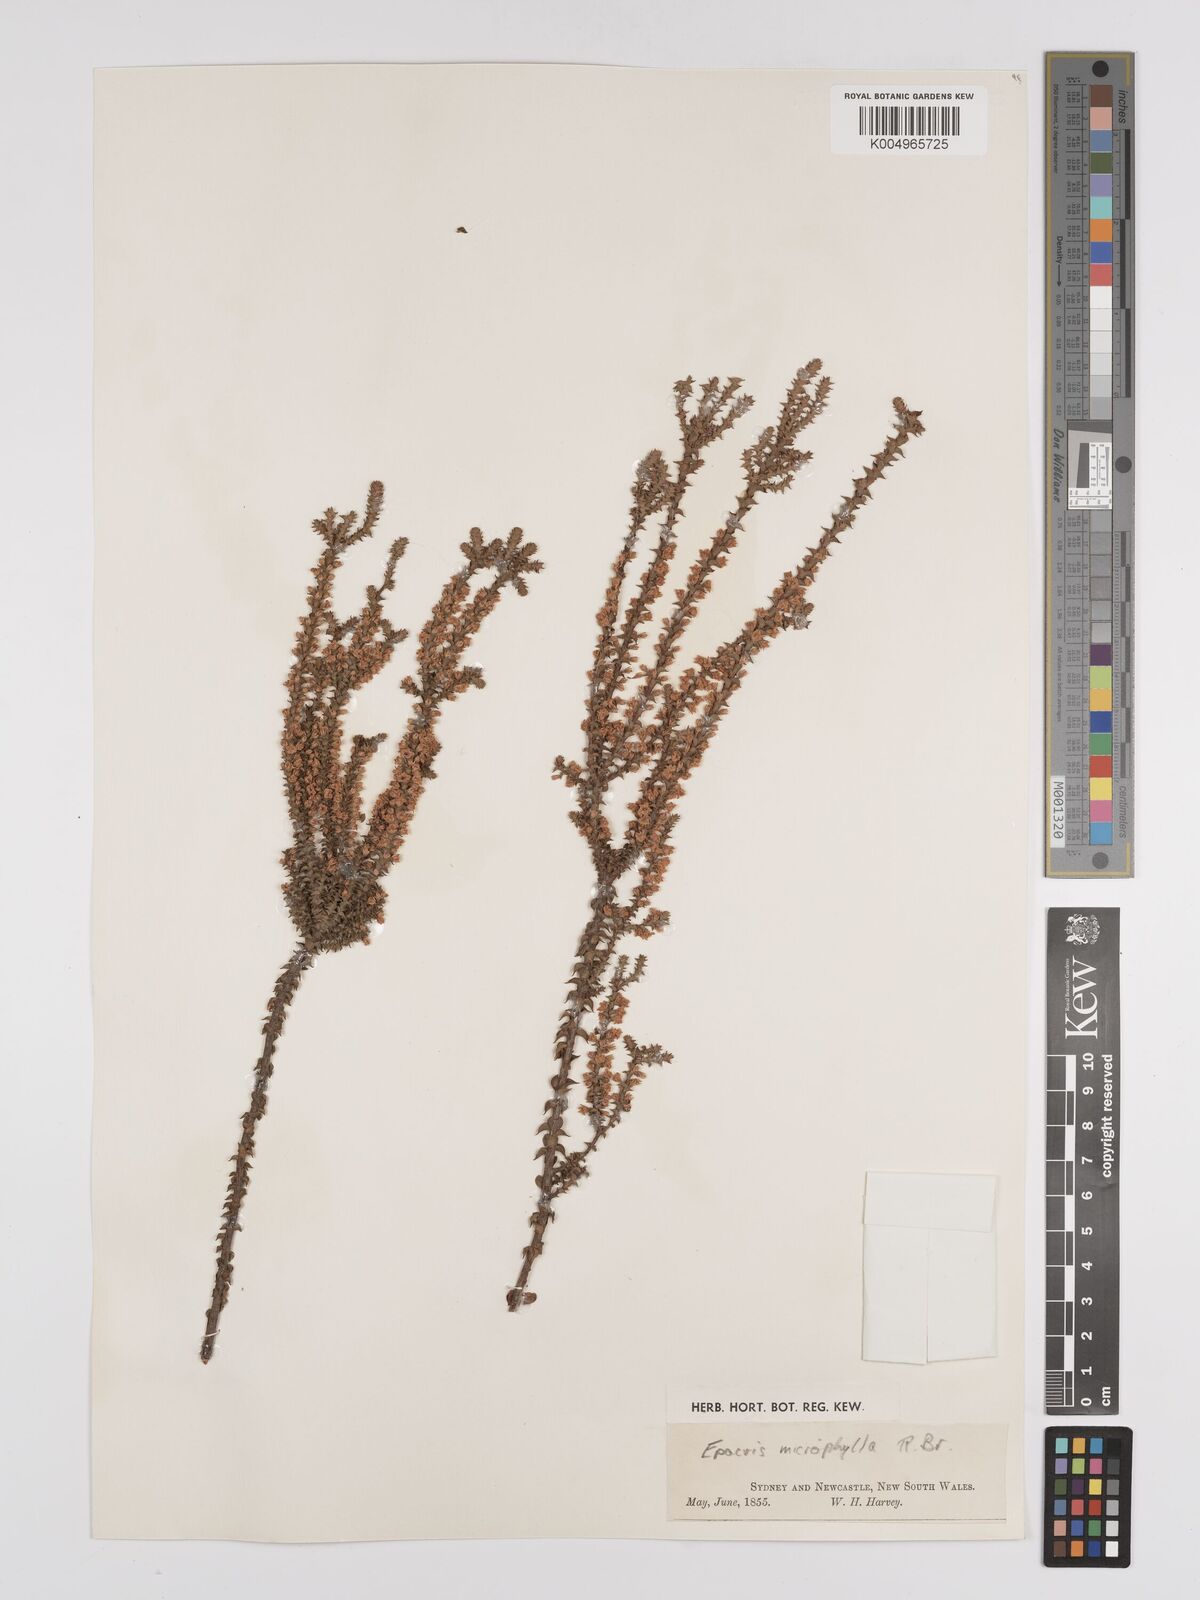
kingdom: Plantae
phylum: Tracheophyta
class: Magnoliopsida
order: Ericales
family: Ericaceae
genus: Epacris
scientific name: Epacris
